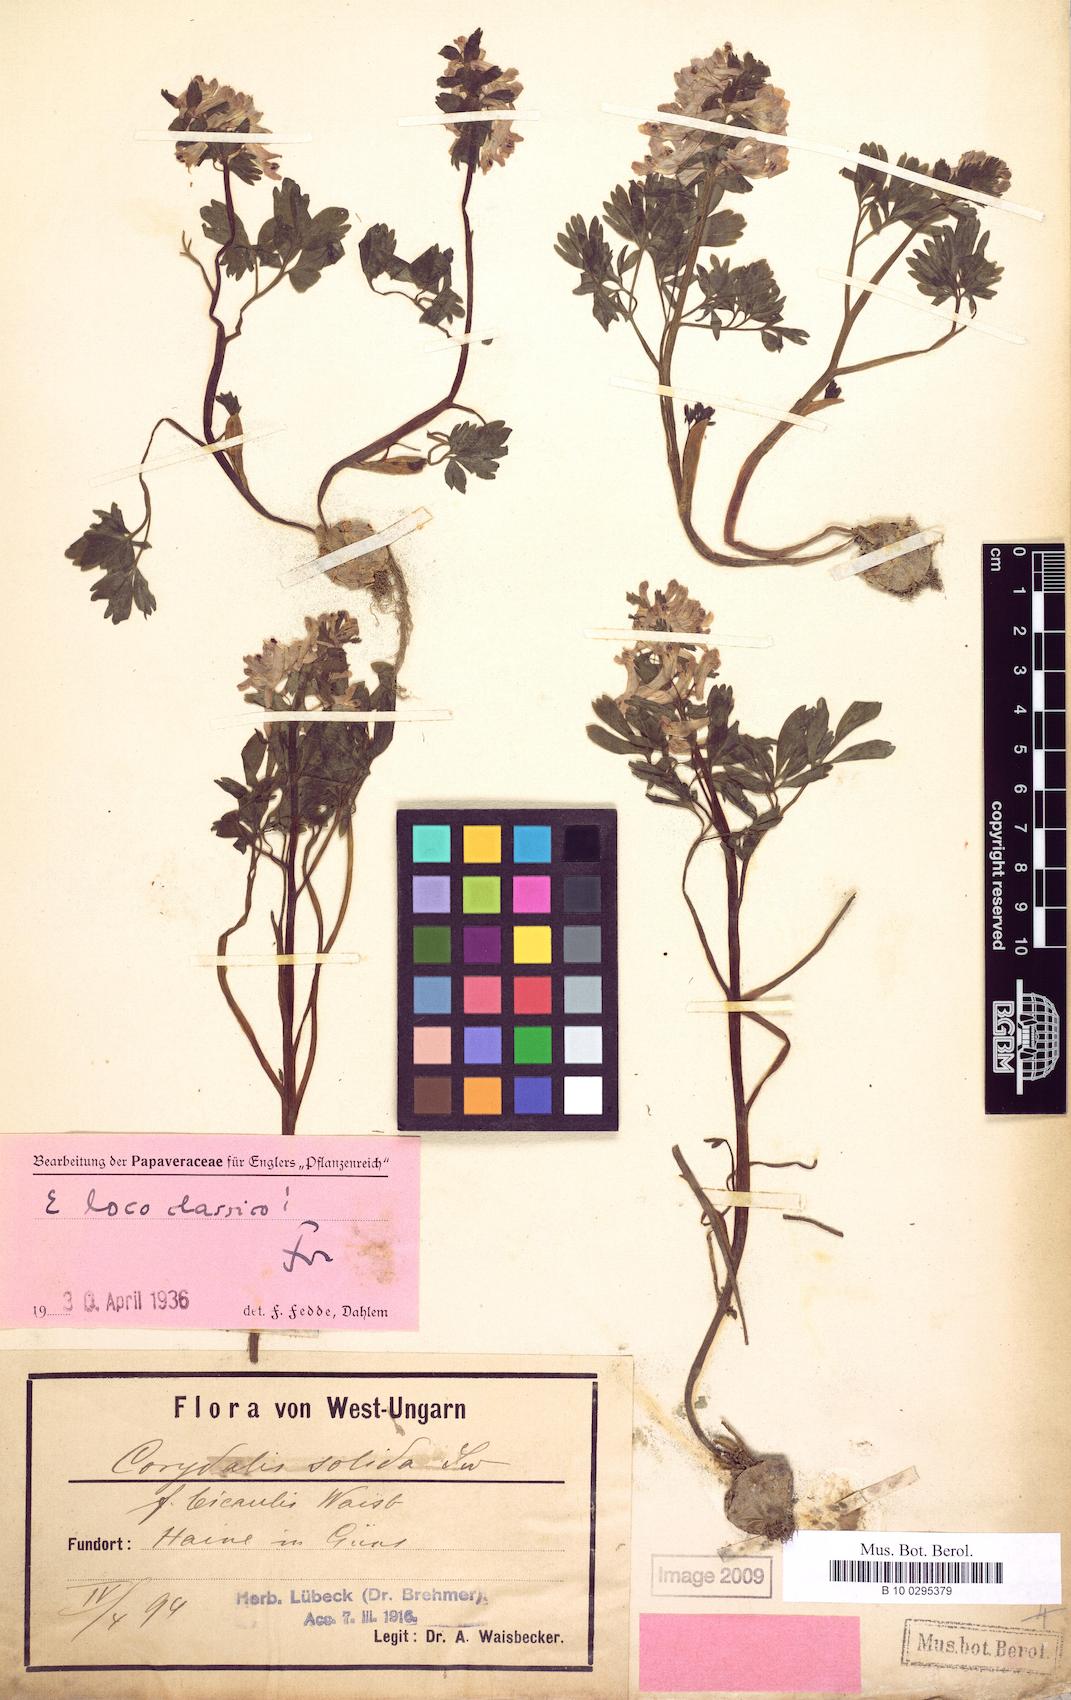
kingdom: Plantae
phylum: Tracheophyta
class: Magnoliopsida
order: Ranunculales
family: Papaveraceae
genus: Corydalis
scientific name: Corydalis solida
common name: Bird-in-a-bush
